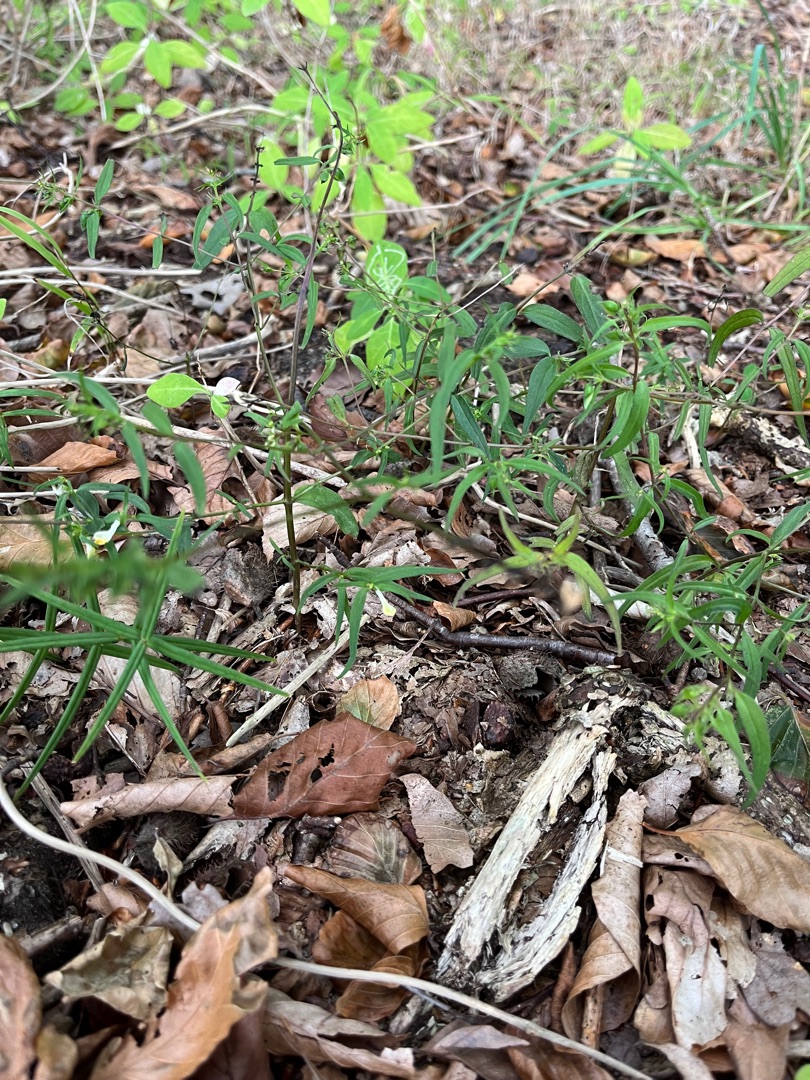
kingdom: Plantae
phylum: Tracheophyta
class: Magnoliopsida
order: Lamiales
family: Orobanchaceae
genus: Melampyrum
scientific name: Melampyrum pratense
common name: Almindelig kohvede
